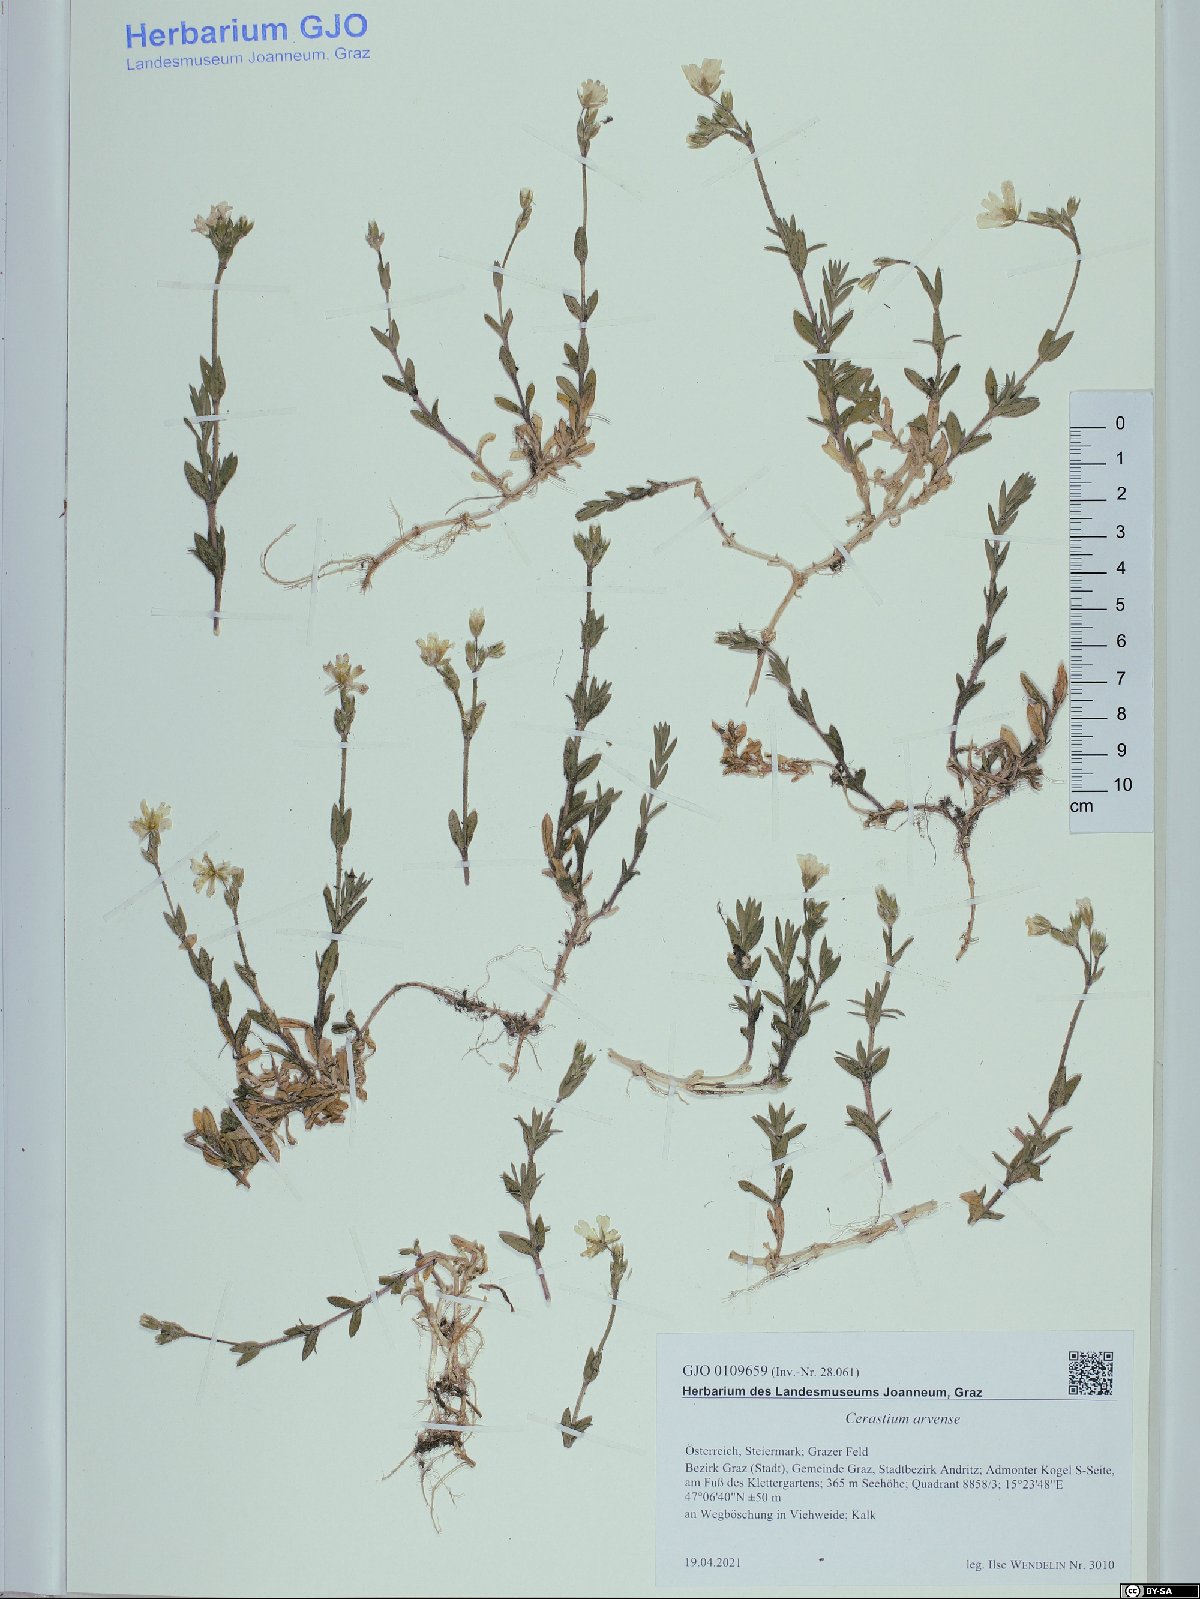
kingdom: Plantae
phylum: Tracheophyta
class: Magnoliopsida
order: Caryophyllales
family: Caryophyllaceae
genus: Cerastium
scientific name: Cerastium arvense
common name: Field mouse-ear
